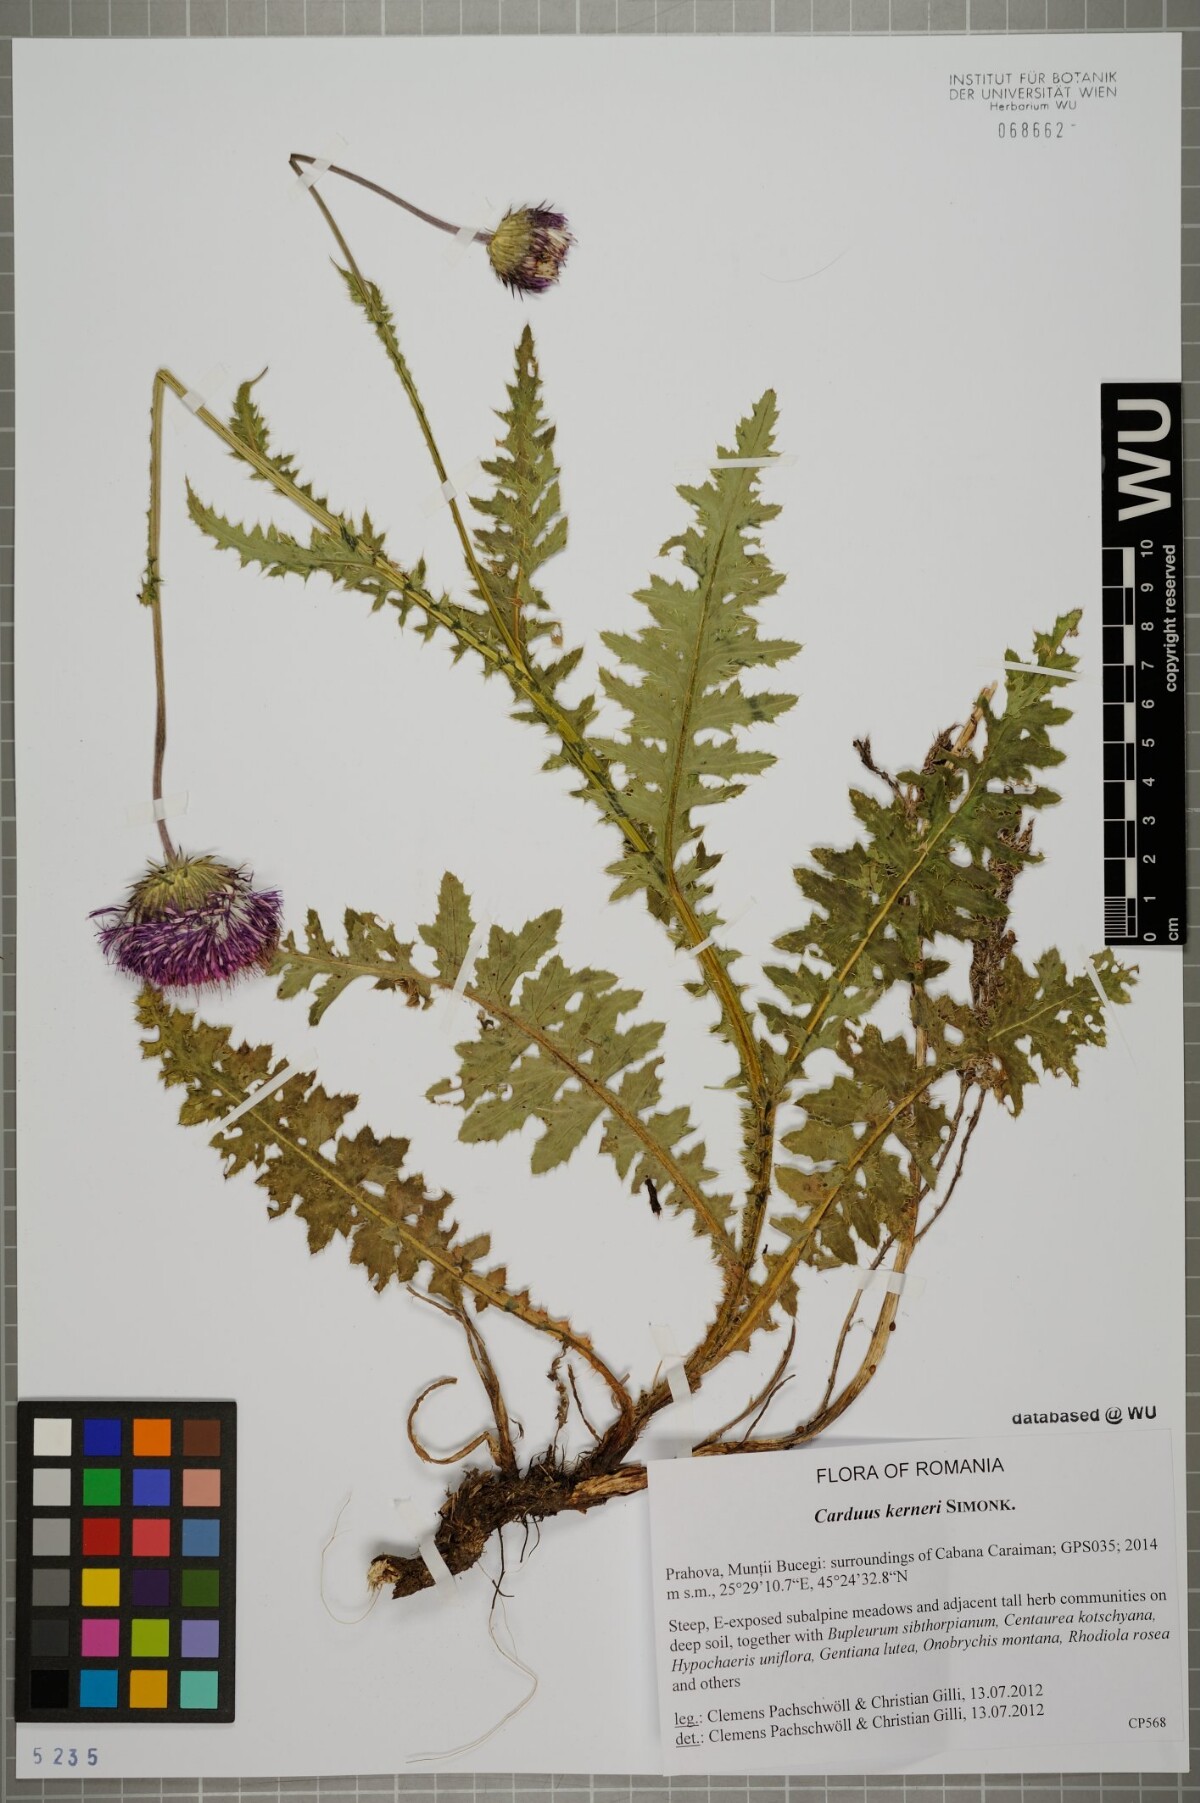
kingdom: Plantae
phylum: Tracheophyta
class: Magnoliopsida
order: Asterales
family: Asteraceae
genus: Carduus
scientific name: Carduus kerneri
